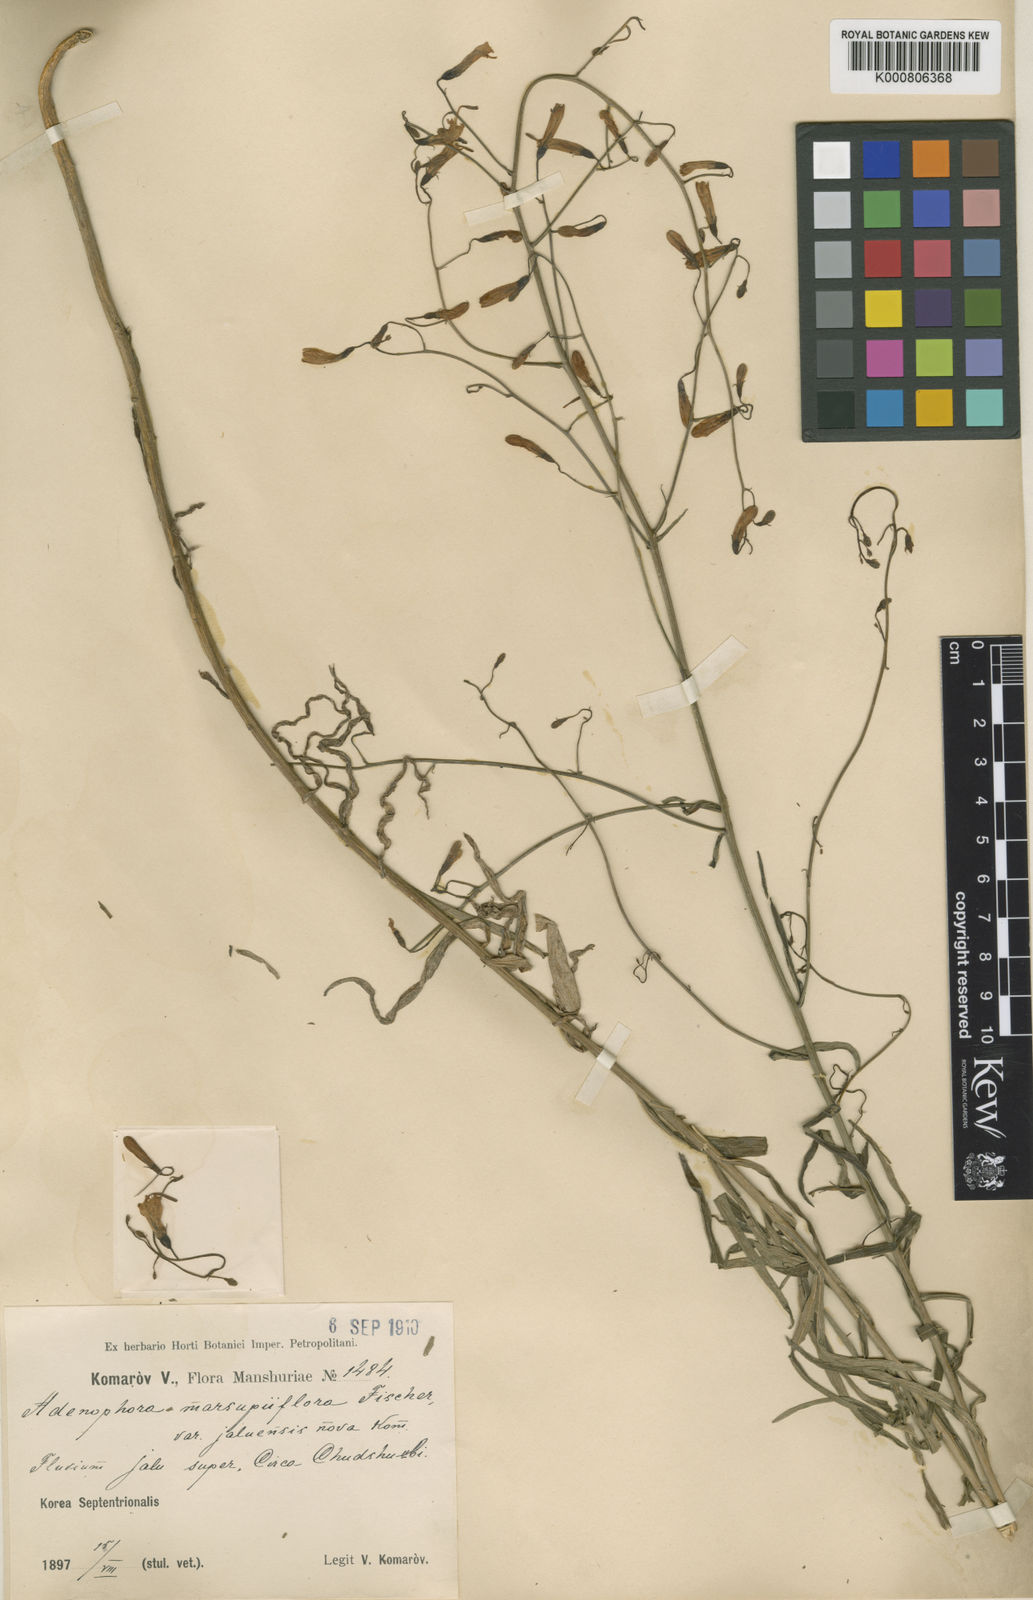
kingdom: Plantae
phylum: Tracheophyta
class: Magnoliopsida
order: Asterales
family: Campanulaceae
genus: Adenophora
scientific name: Adenophora stenanthina
